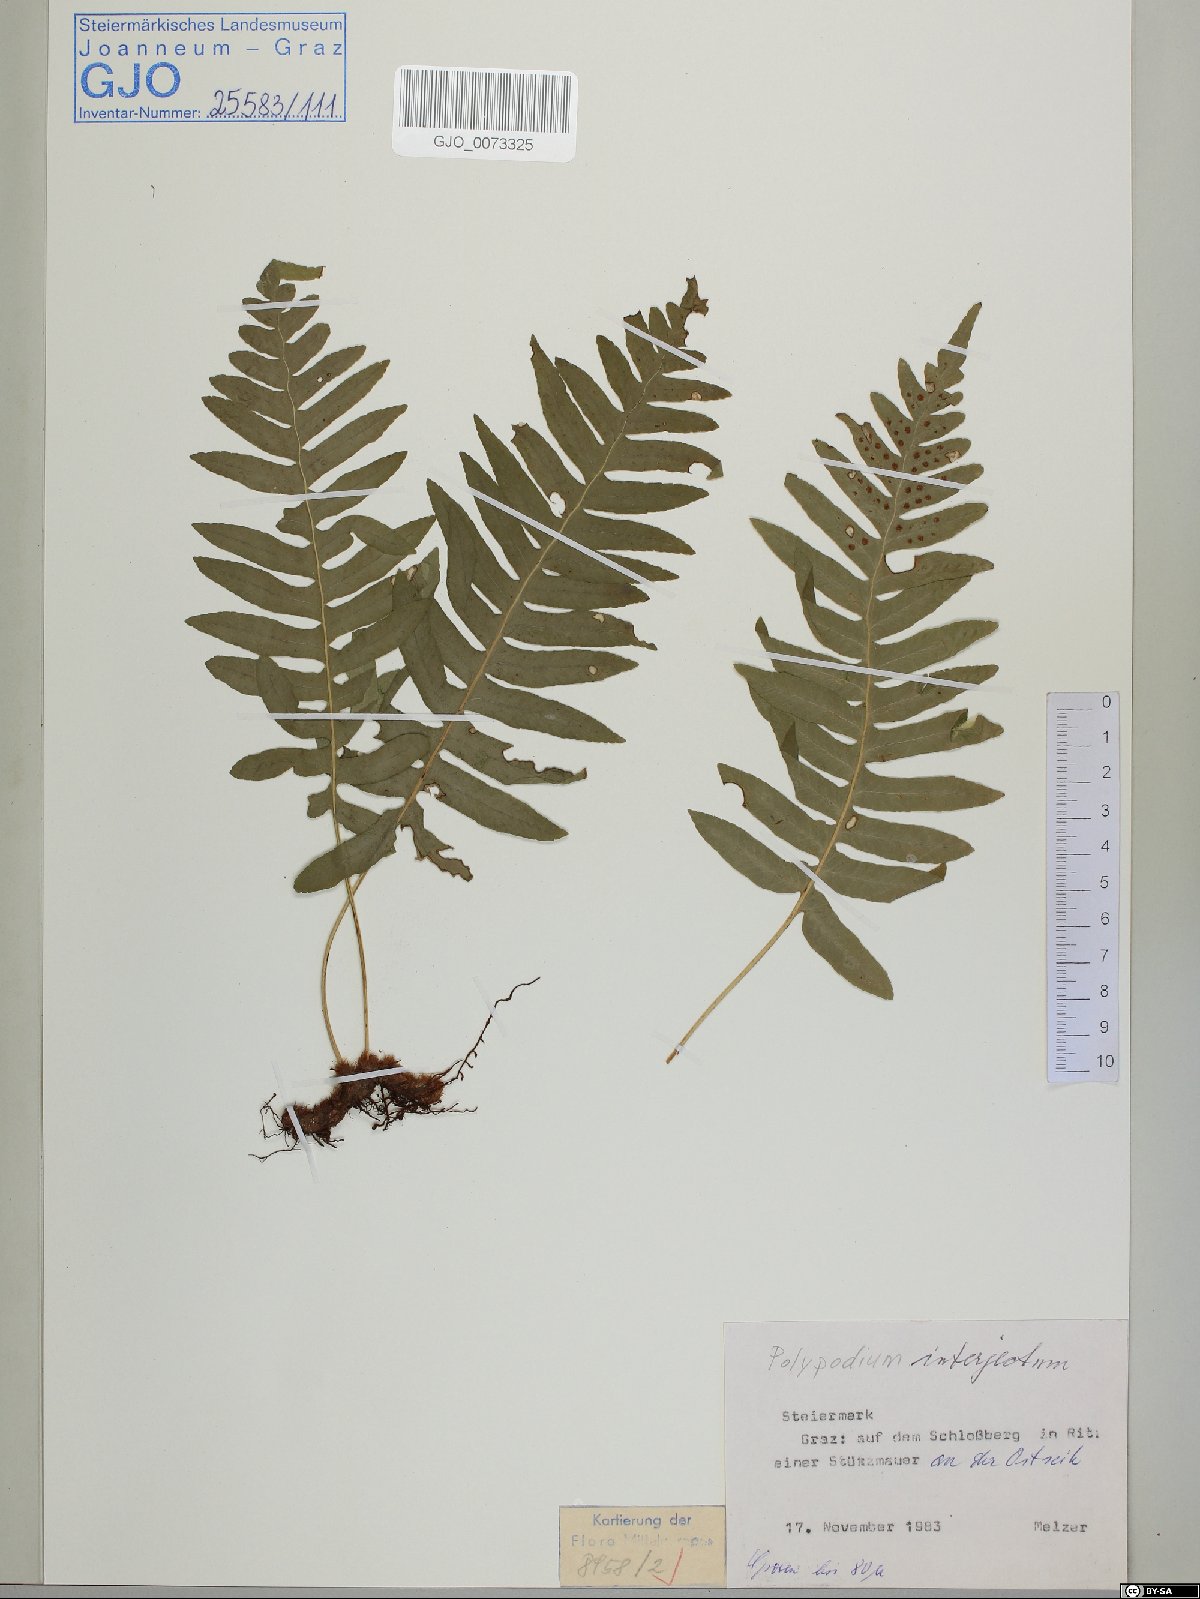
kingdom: Plantae
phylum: Tracheophyta
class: Polypodiopsida
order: Polypodiales
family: Polypodiaceae
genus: Polypodium
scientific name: Polypodium interjectum
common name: Intermediate polypody
